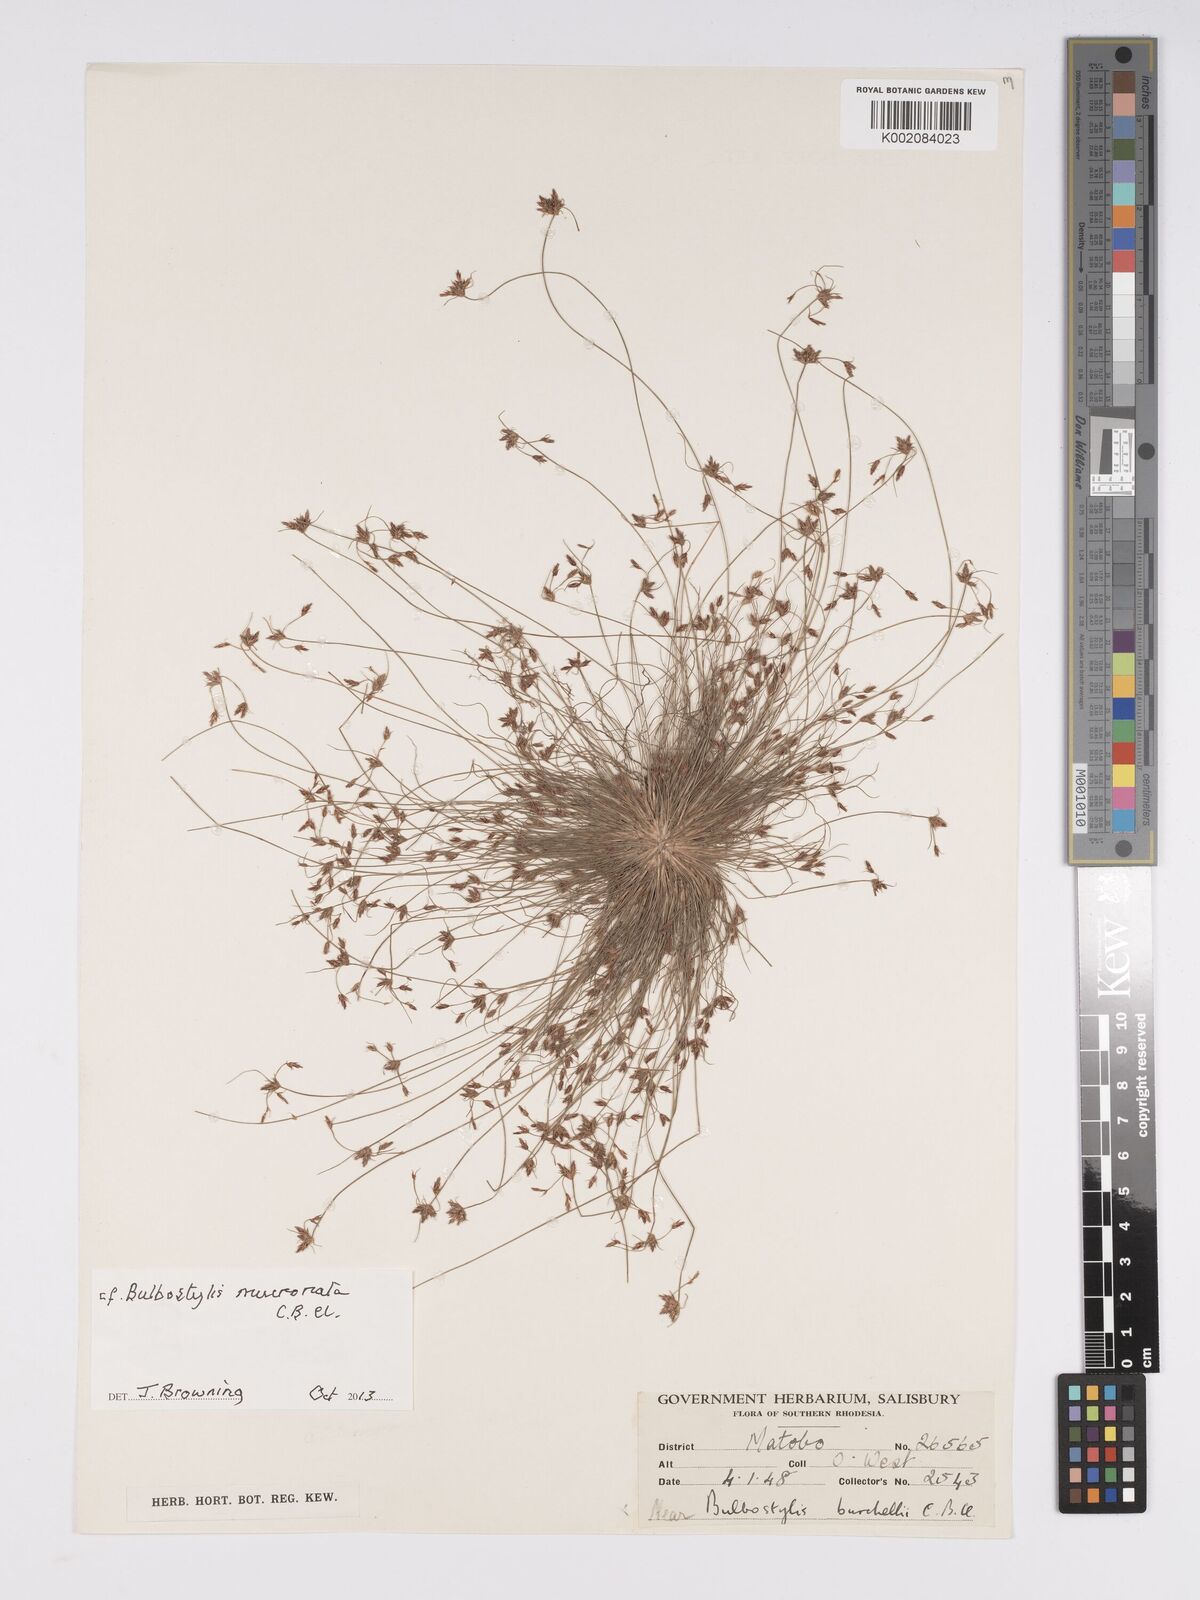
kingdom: Plantae
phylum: Tracheophyta
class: Liliopsida
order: Poales
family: Cyperaceae
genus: Bulbostylis
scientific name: Bulbostylis mucronata
